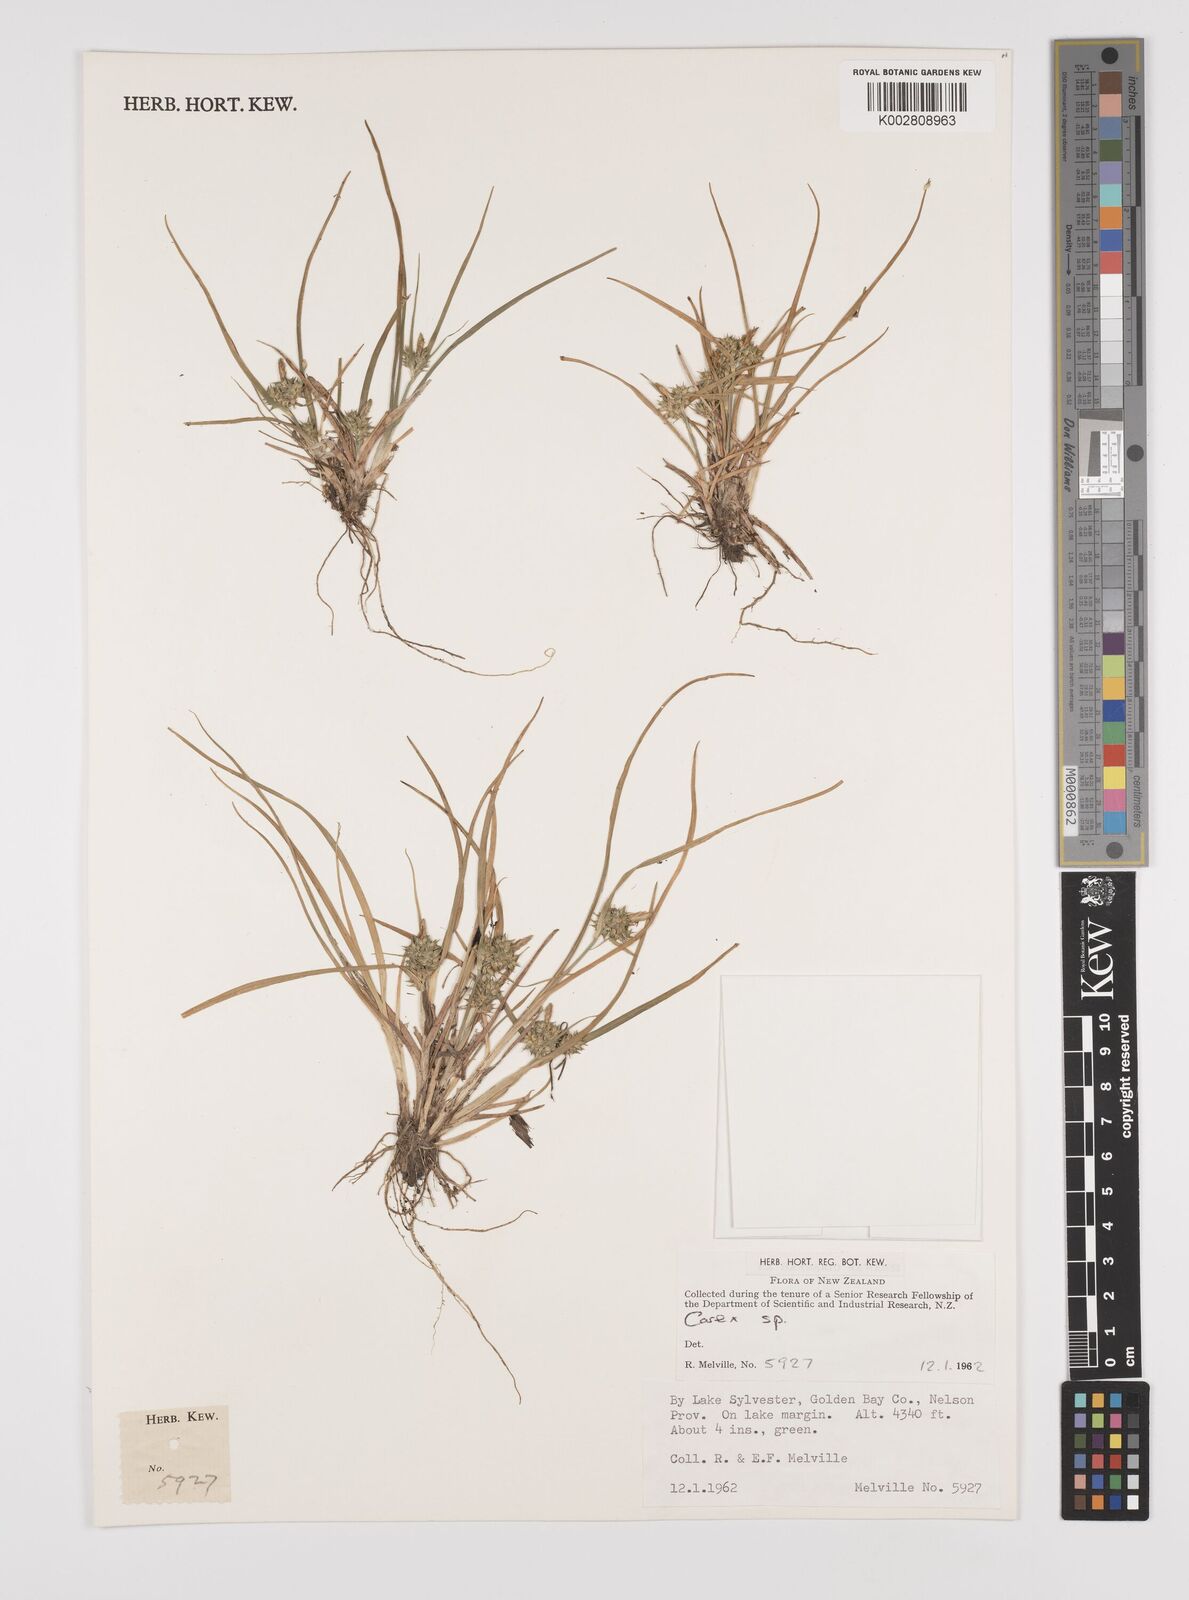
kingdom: Plantae
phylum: Tracheophyta
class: Liliopsida
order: Poales
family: Cyperaceae
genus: Carex
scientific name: Carex
